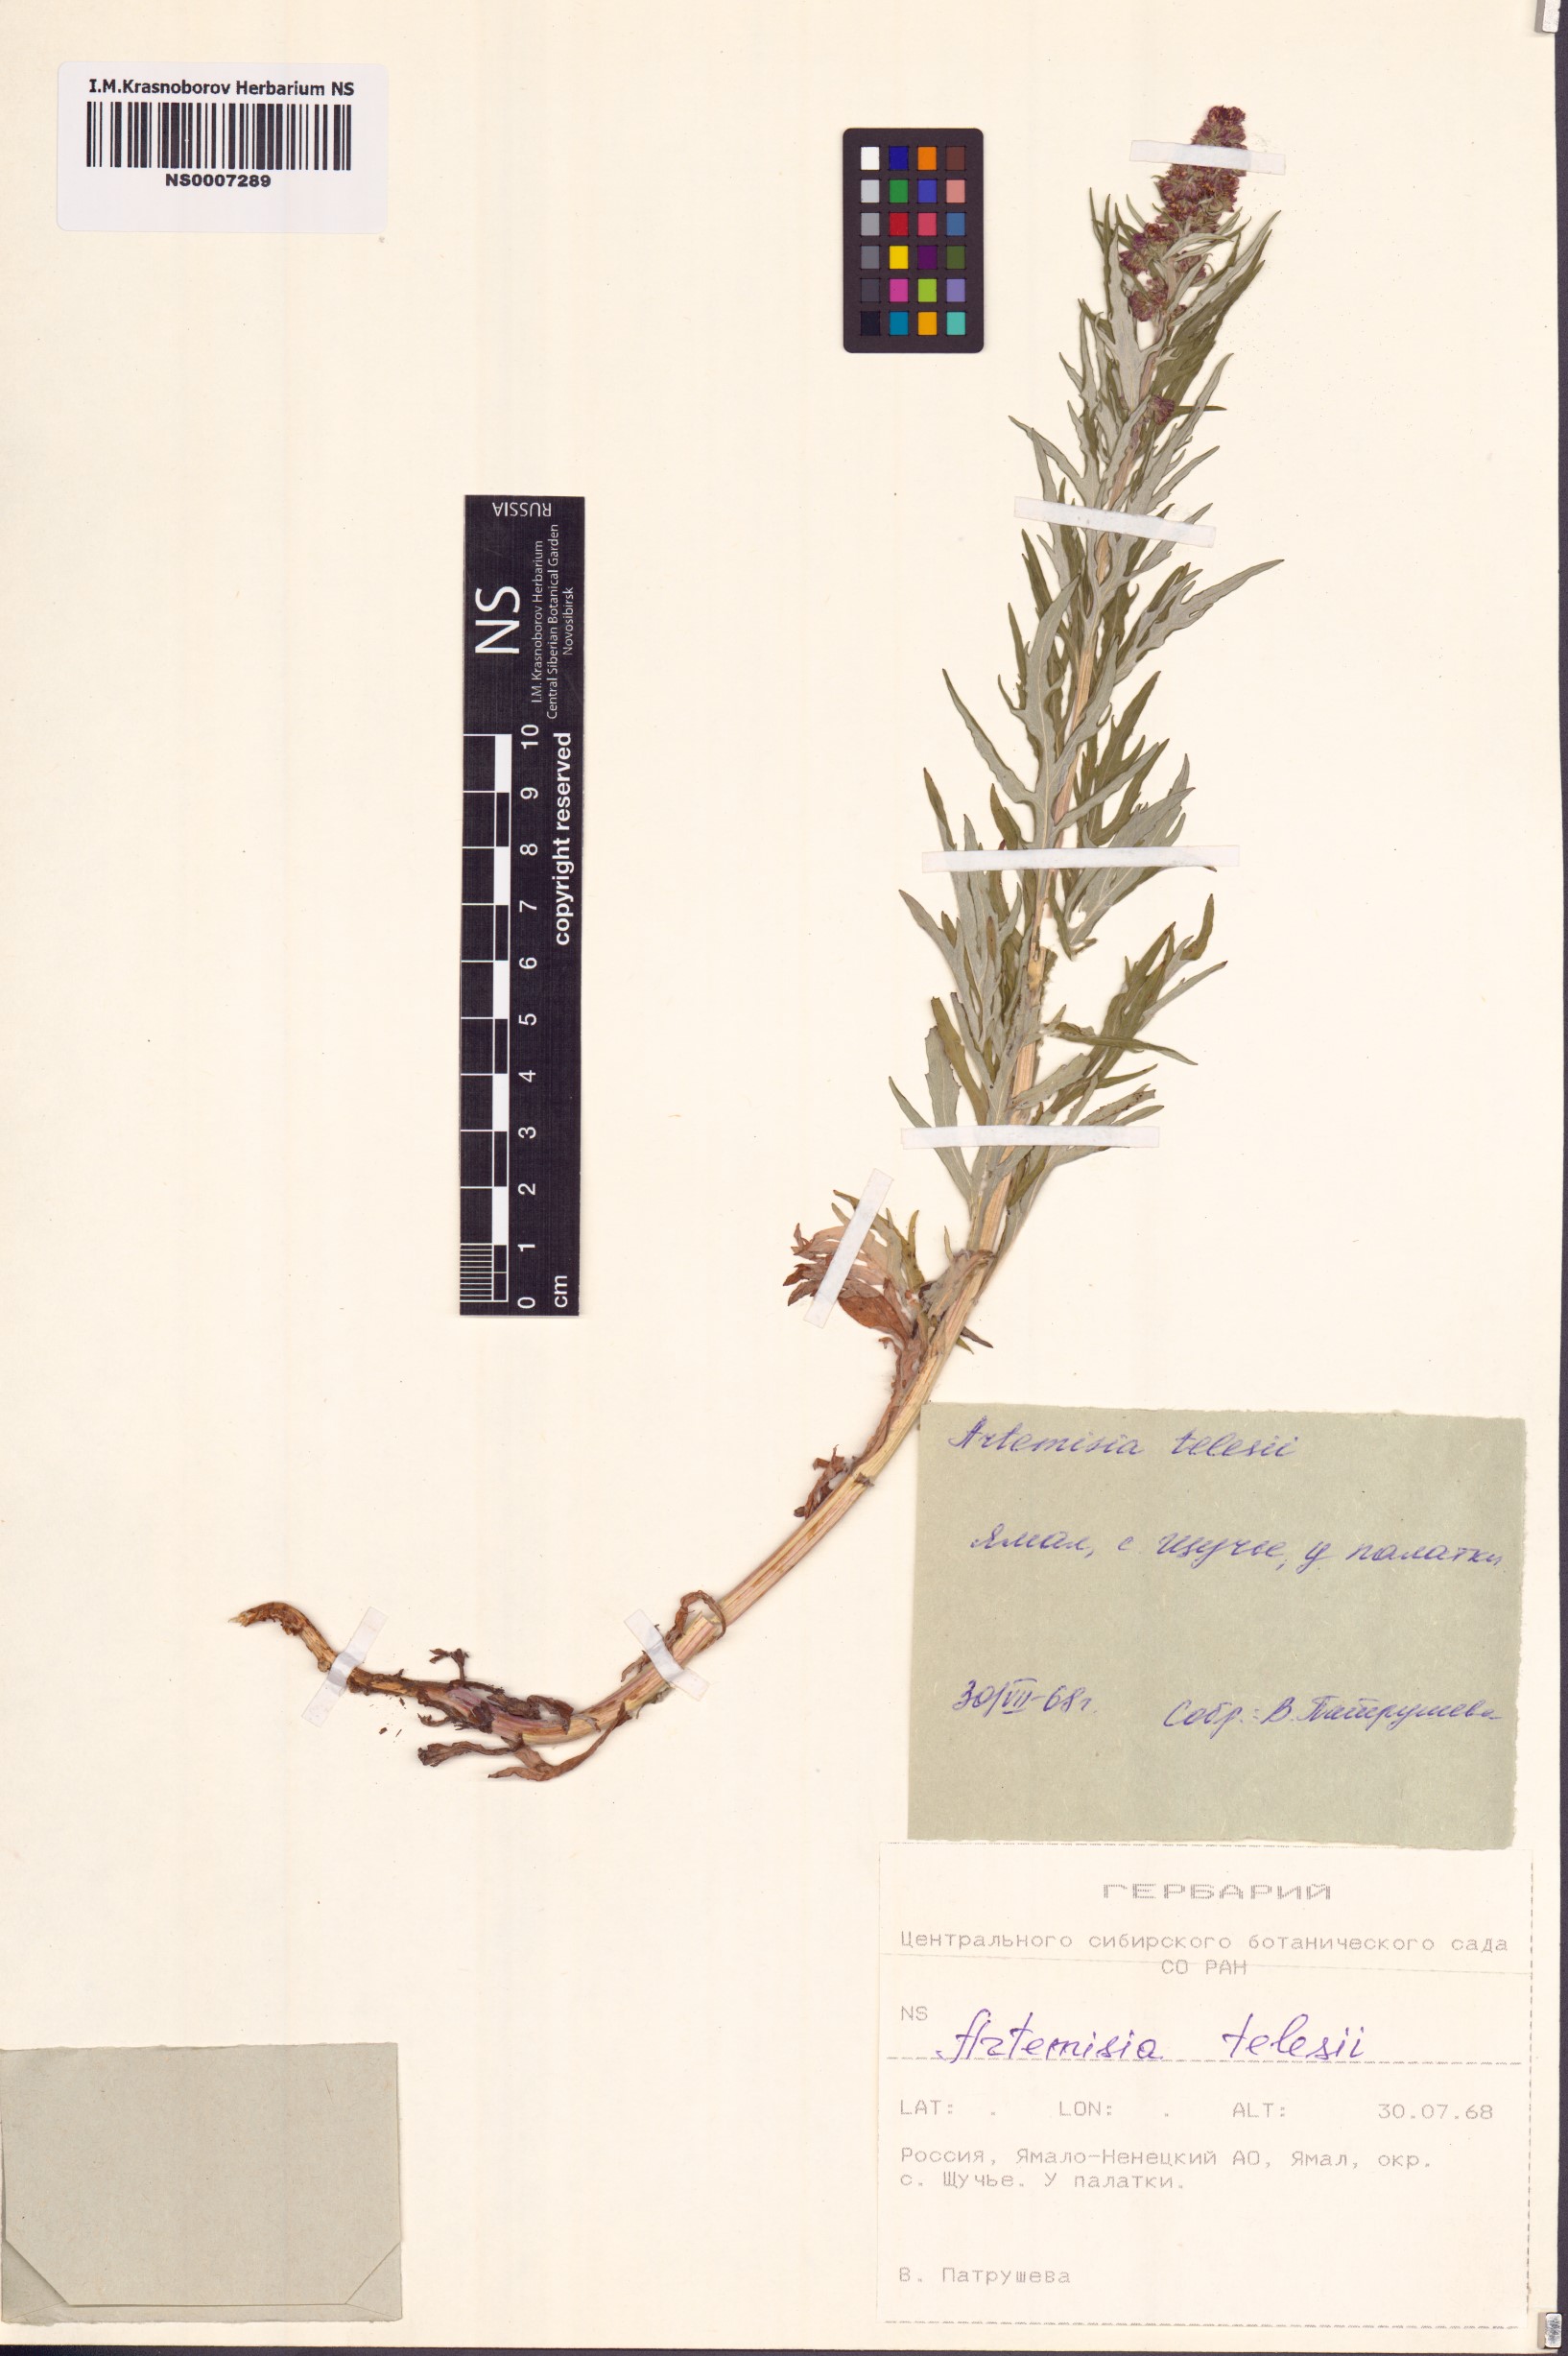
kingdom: Plantae
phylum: Tracheophyta
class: Magnoliopsida
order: Asterales
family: Asteraceae
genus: Artemisia
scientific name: Artemisia tilesii
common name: Aleutian mugwort
